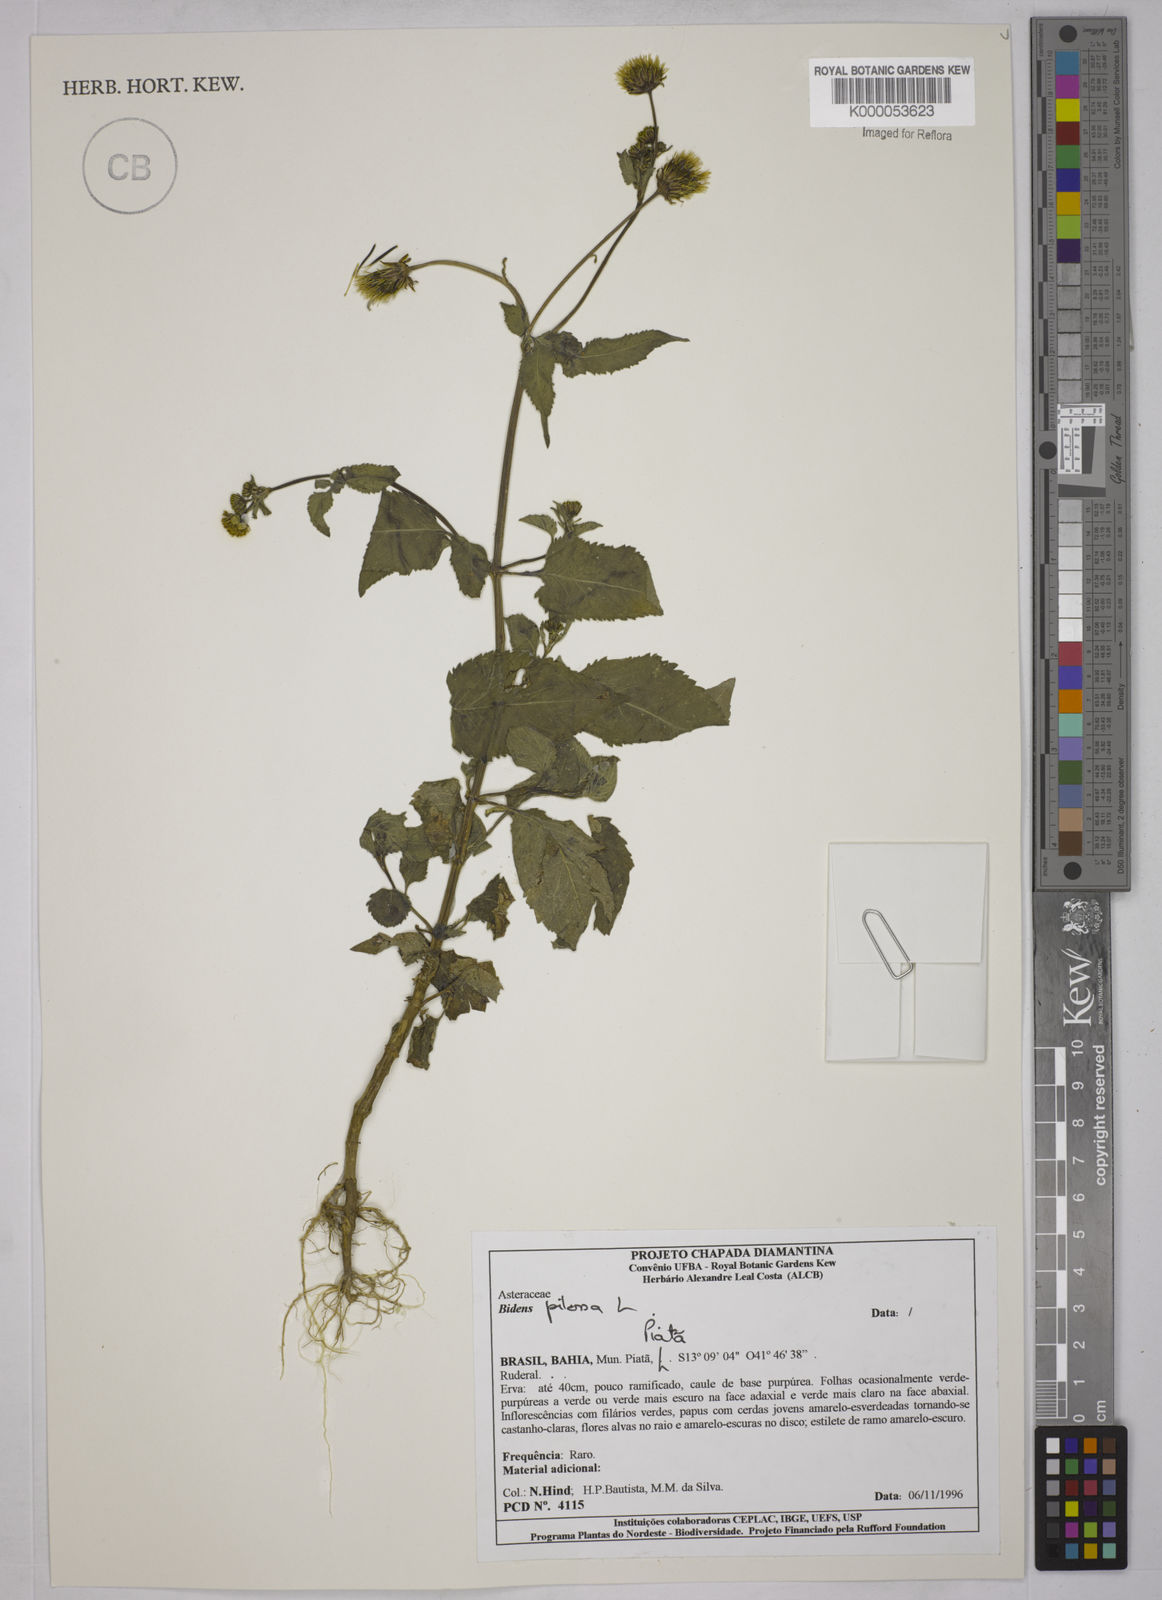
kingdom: Plantae
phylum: Tracheophyta
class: Magnoliopsida
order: Asterales
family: Asteraceae
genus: Bidens
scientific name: Bidens pilosa
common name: Black-jack
